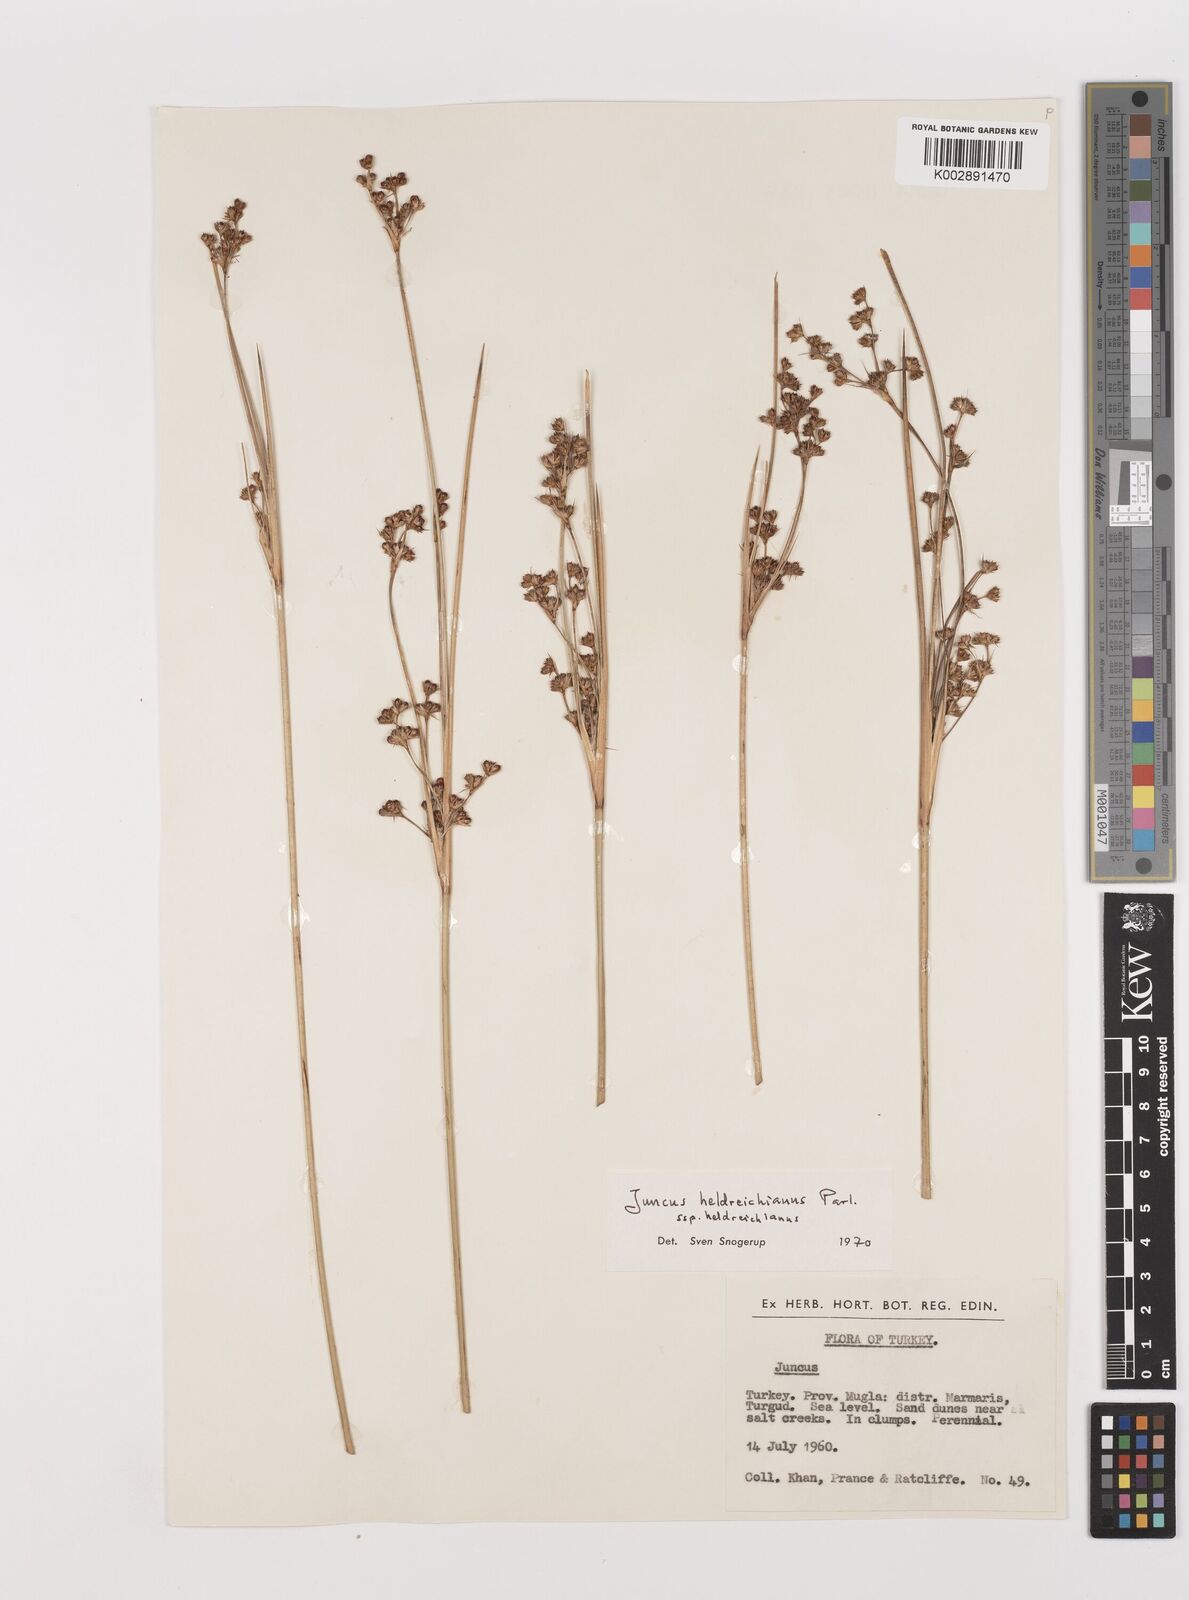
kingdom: Plantae
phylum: Tracheophyta
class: Liliopsida
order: Poales
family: Juncaceae
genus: Juncus
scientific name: Juncus heldreichianus
